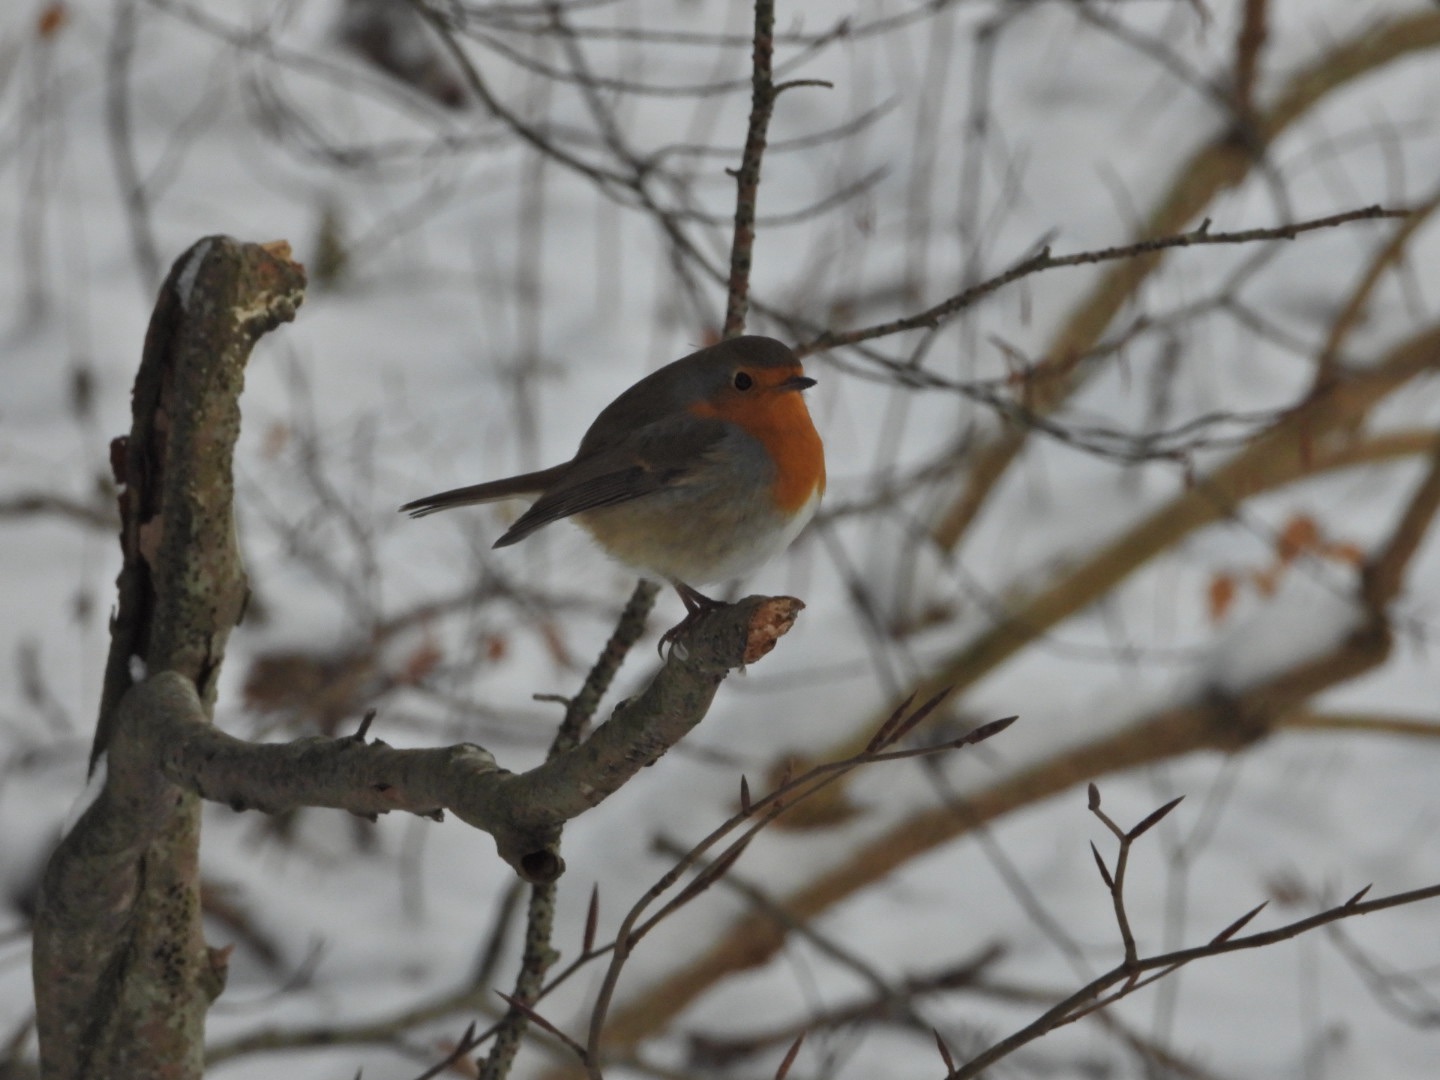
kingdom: Animalia
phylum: Chordata
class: Aves
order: Passeriformes
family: Muscicapidae
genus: Erithacus
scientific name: Erithacus rubecula
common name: Rødhals/rødkælk
